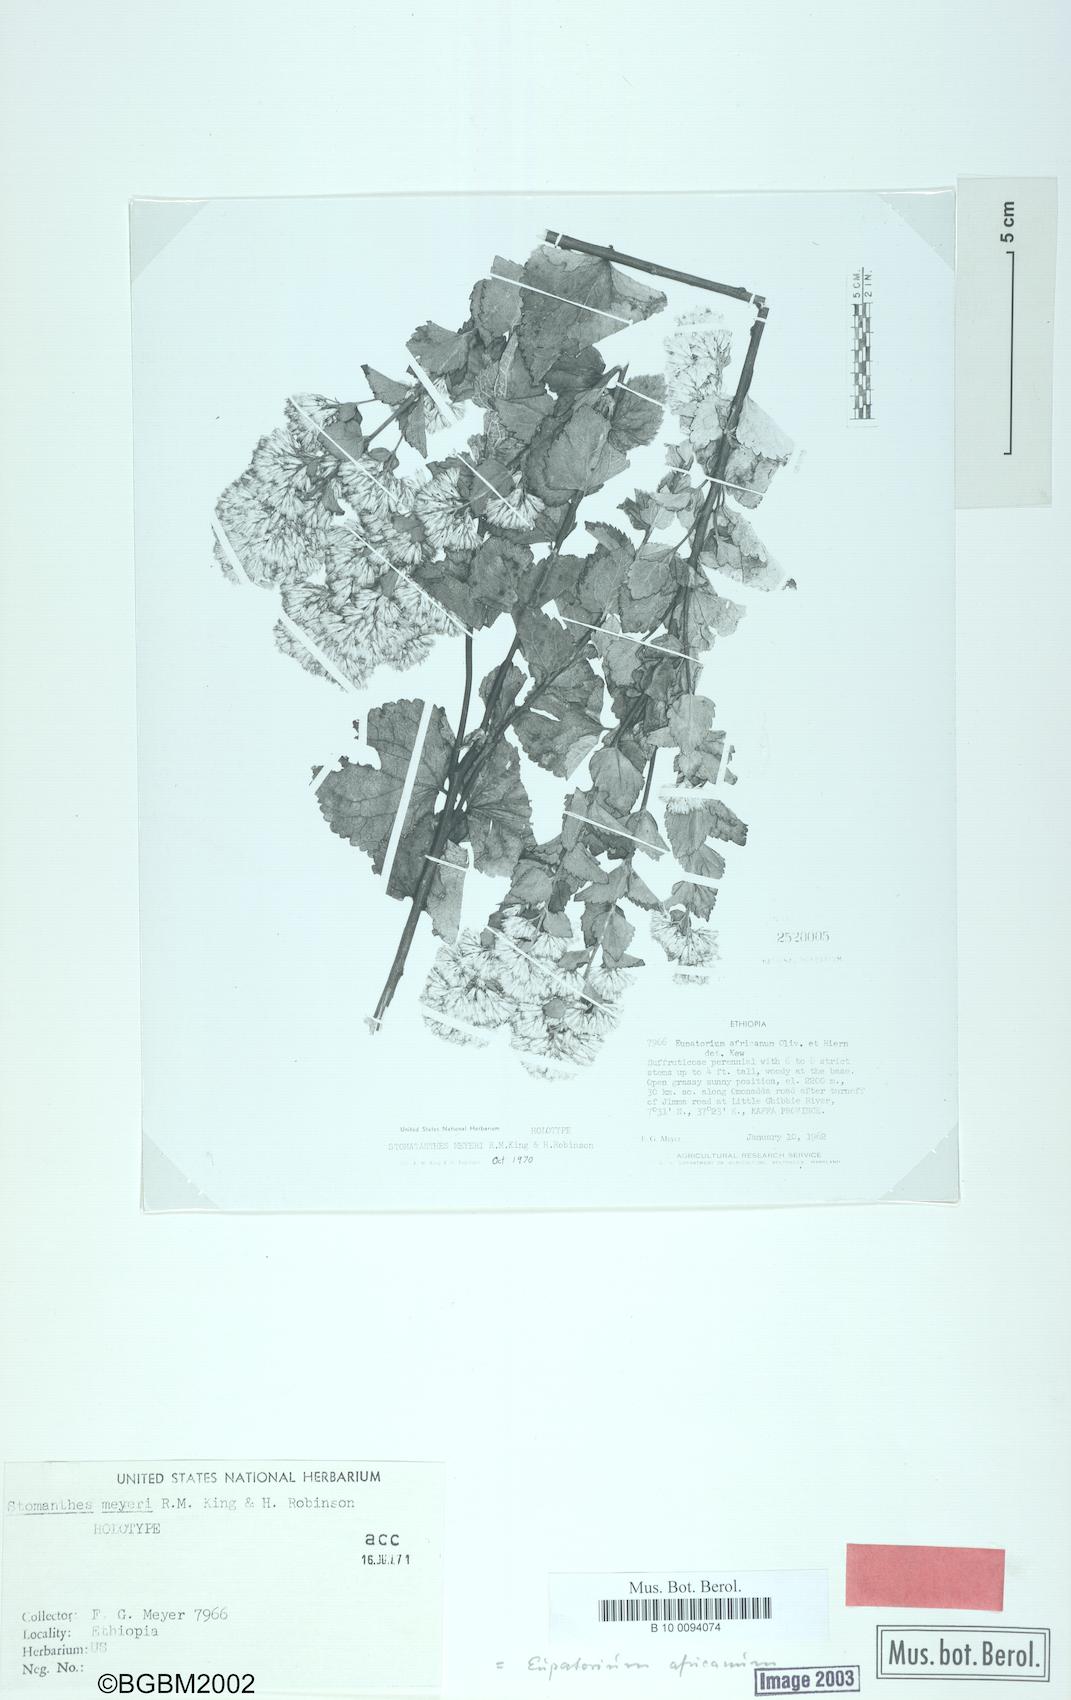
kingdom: Plantae
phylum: Tracheophyta
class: Magnoliopsida
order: Asterales
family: Asteraceae
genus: Stomatanthes
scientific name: Stomatanthes meyeri
